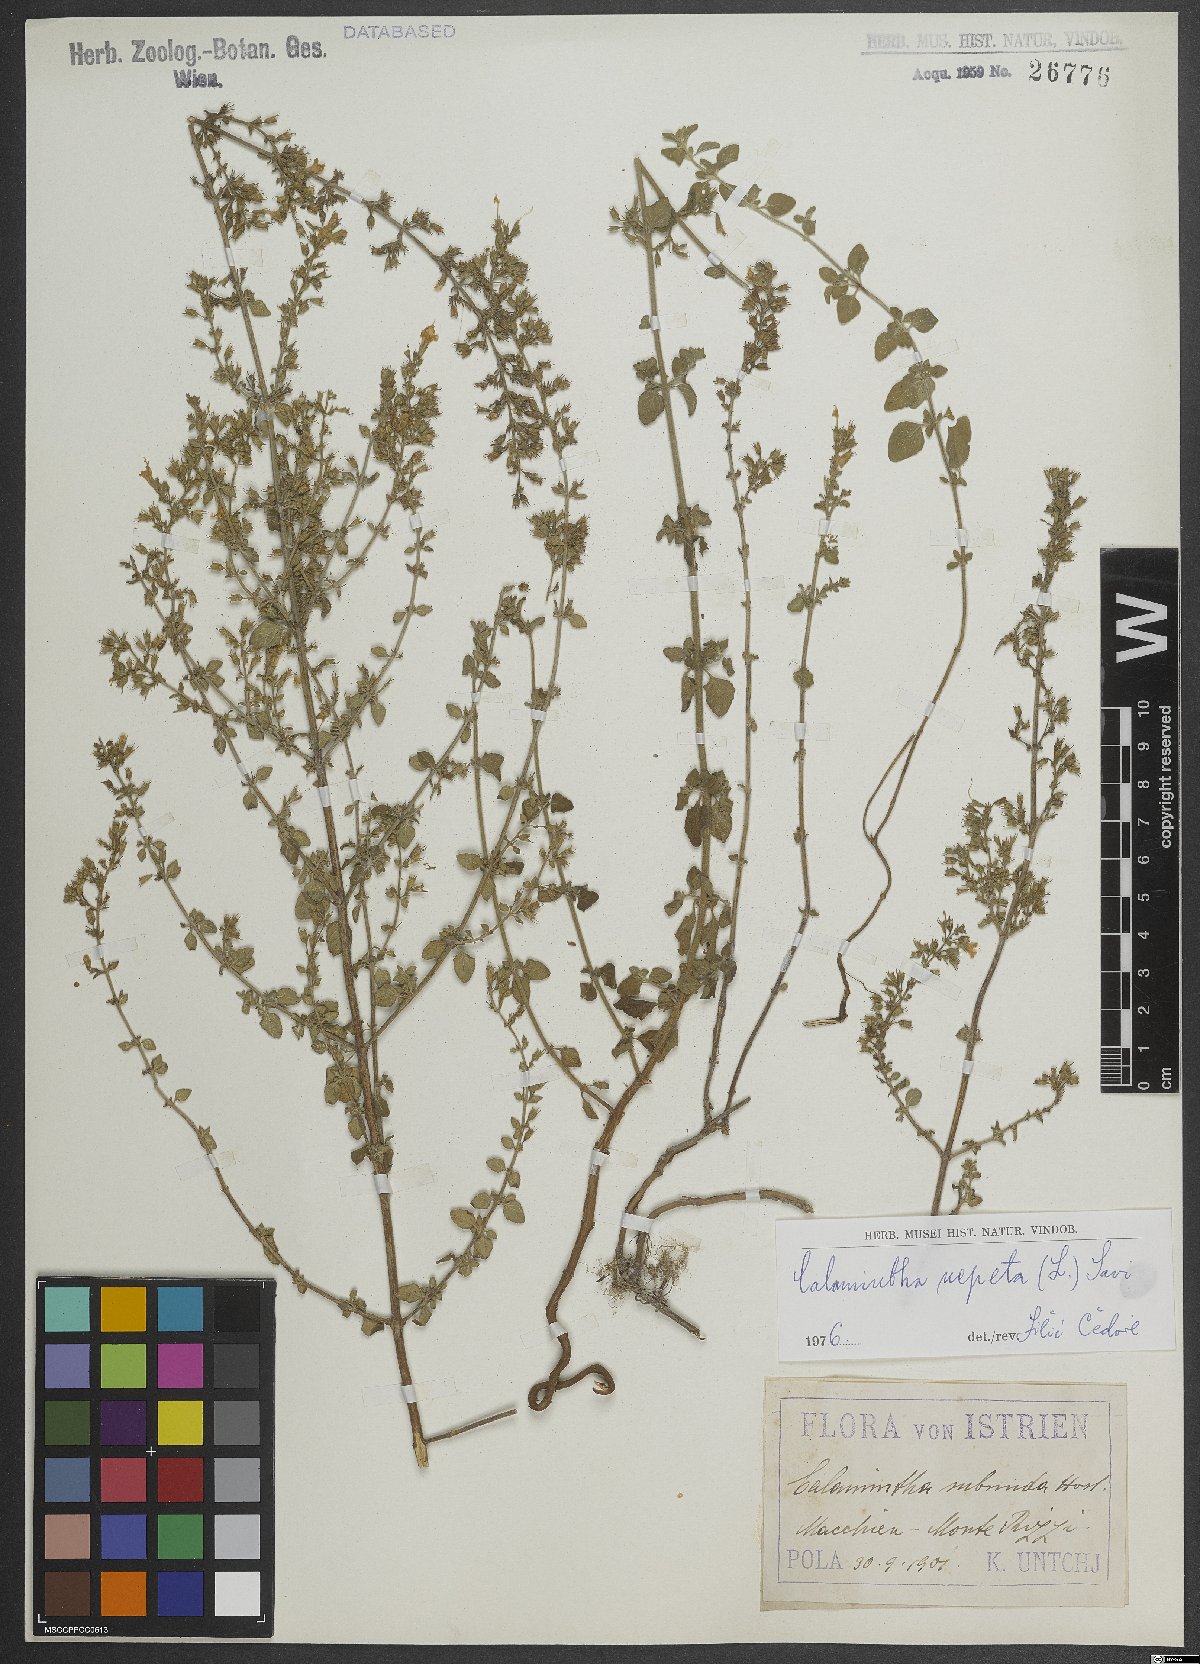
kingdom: Plantae
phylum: Tracheophyta
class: Magnoliopsida
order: Lamiales
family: Lamiaceae
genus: Clinopodium
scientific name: Clinopodium nepeta
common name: Lesser calamint
